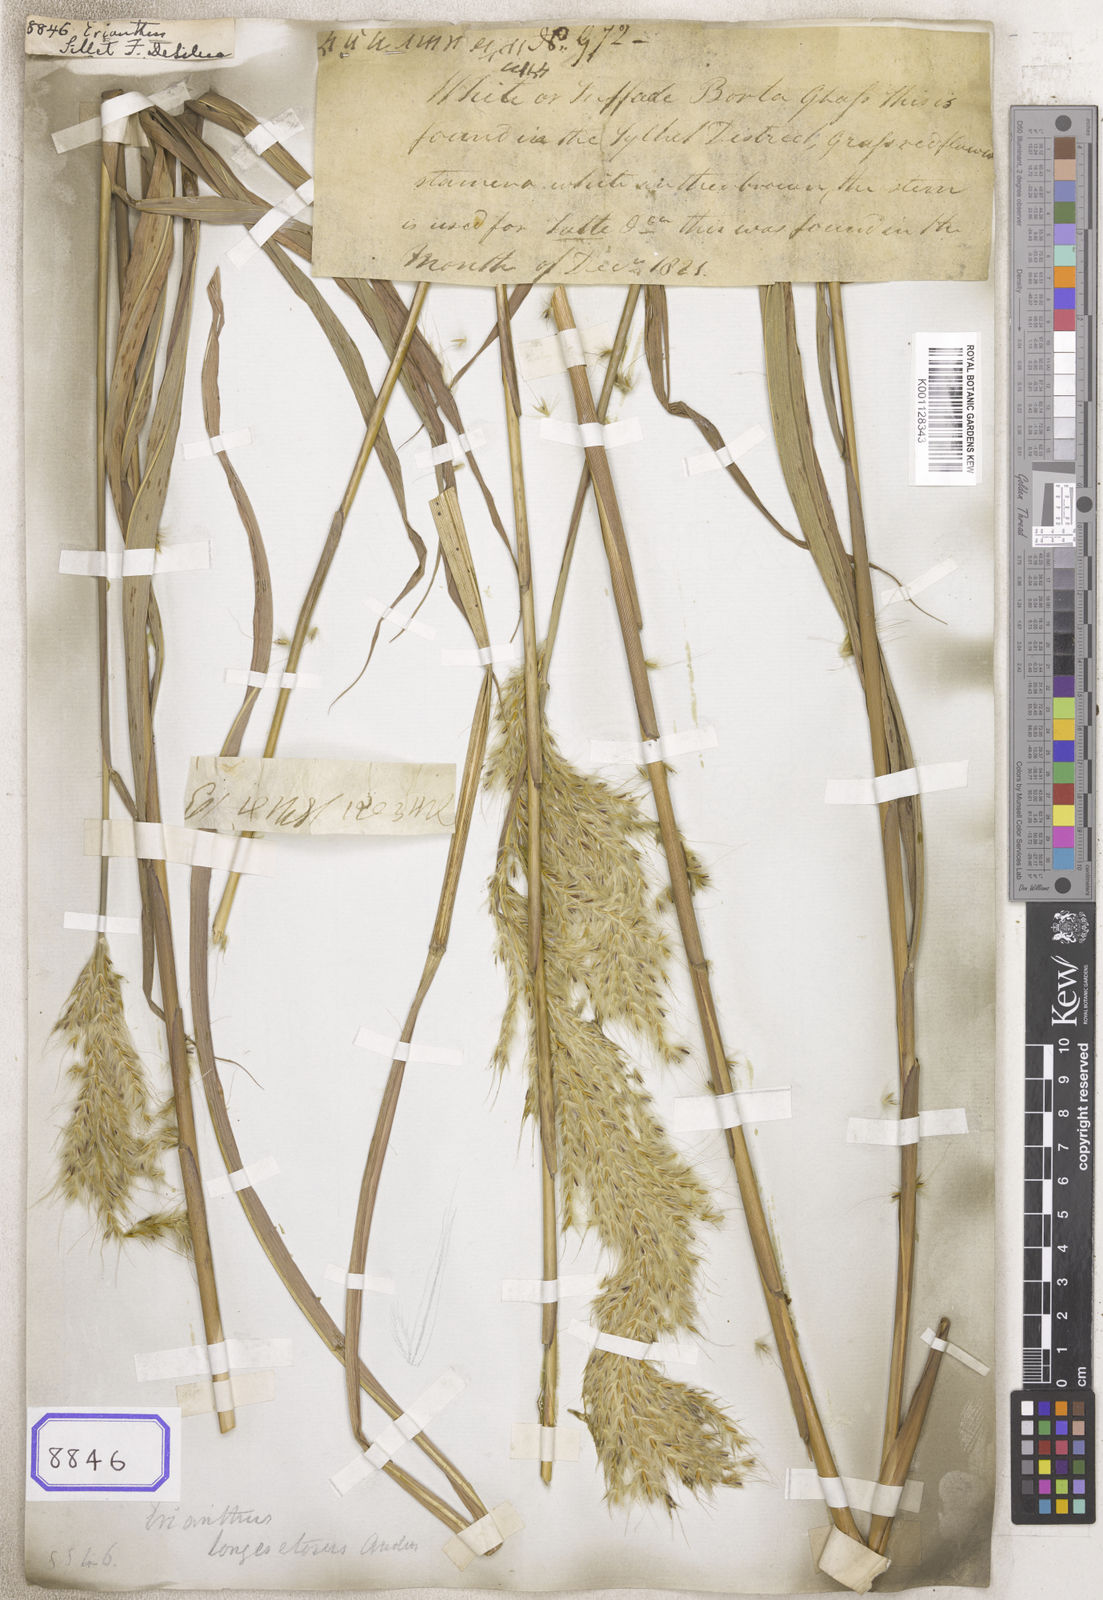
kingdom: Plantae
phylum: Tracheophyta
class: Liliopsida
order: Poales
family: Poaceae
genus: Erianthus
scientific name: Erianthus
